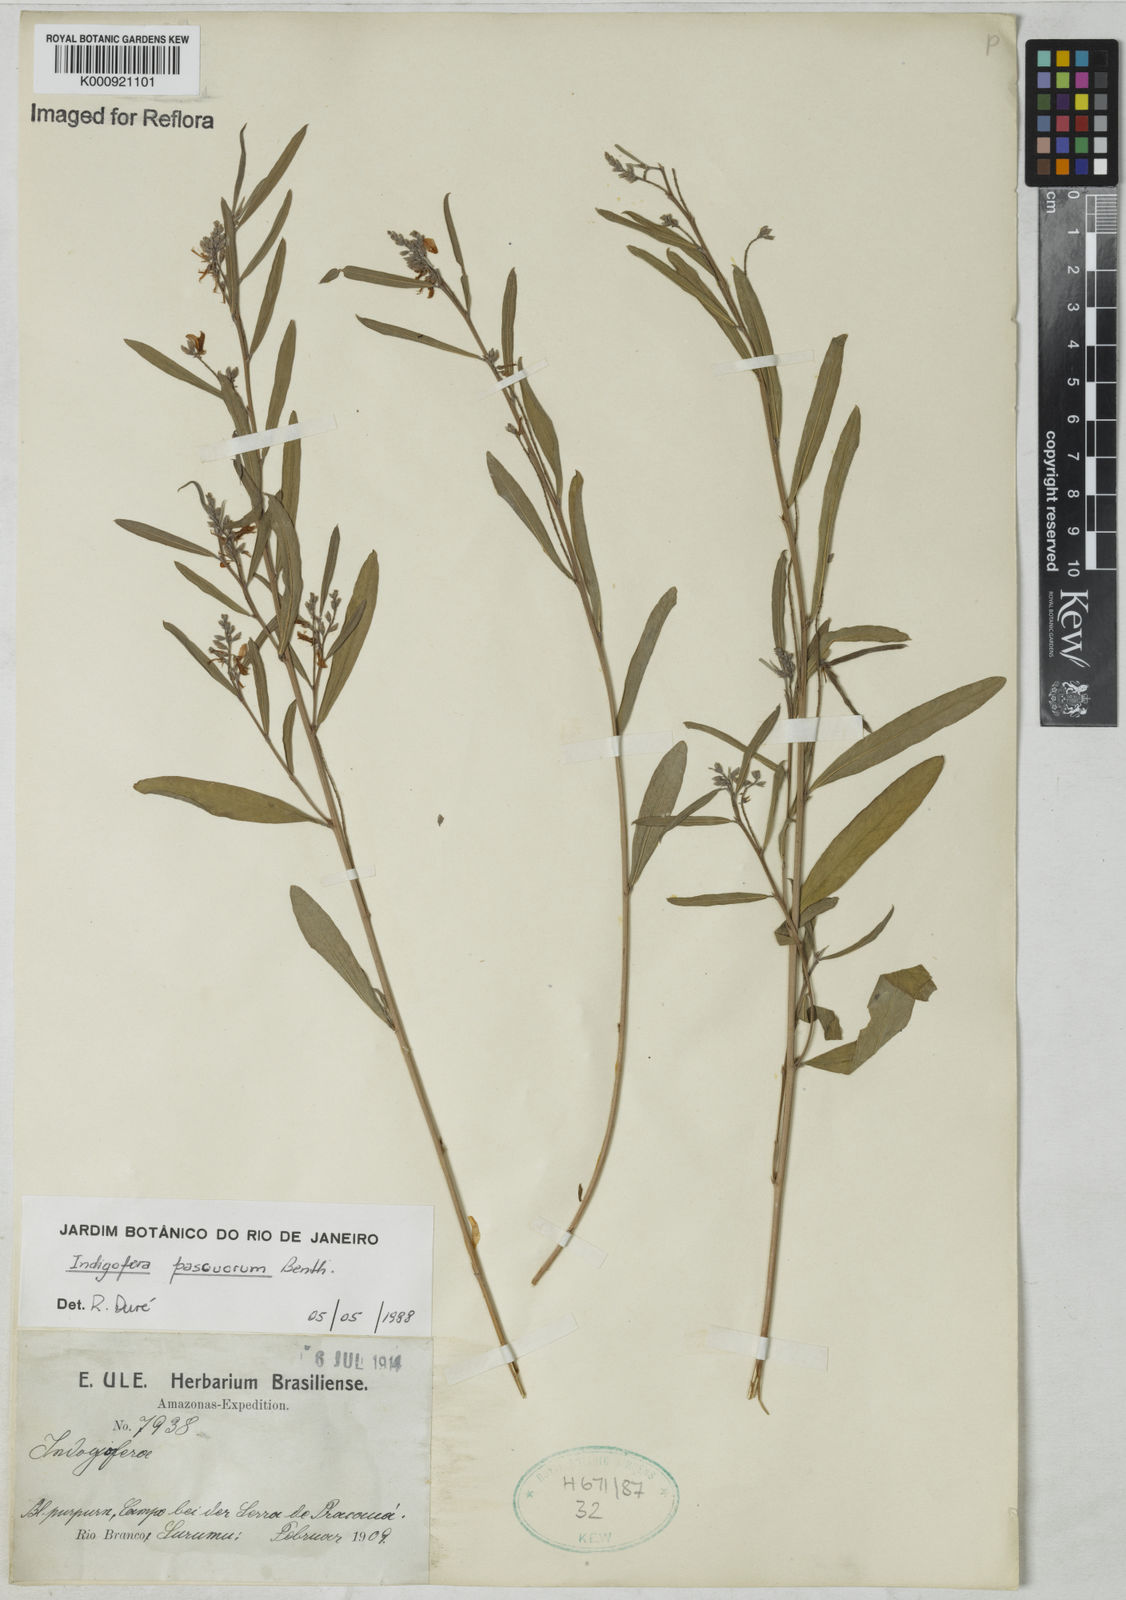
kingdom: Plantae
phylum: Tracheophyta
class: Magnoliopsida
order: Fabales
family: Fabaceae
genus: Indigofera
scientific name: Indigofera lespedezioides
